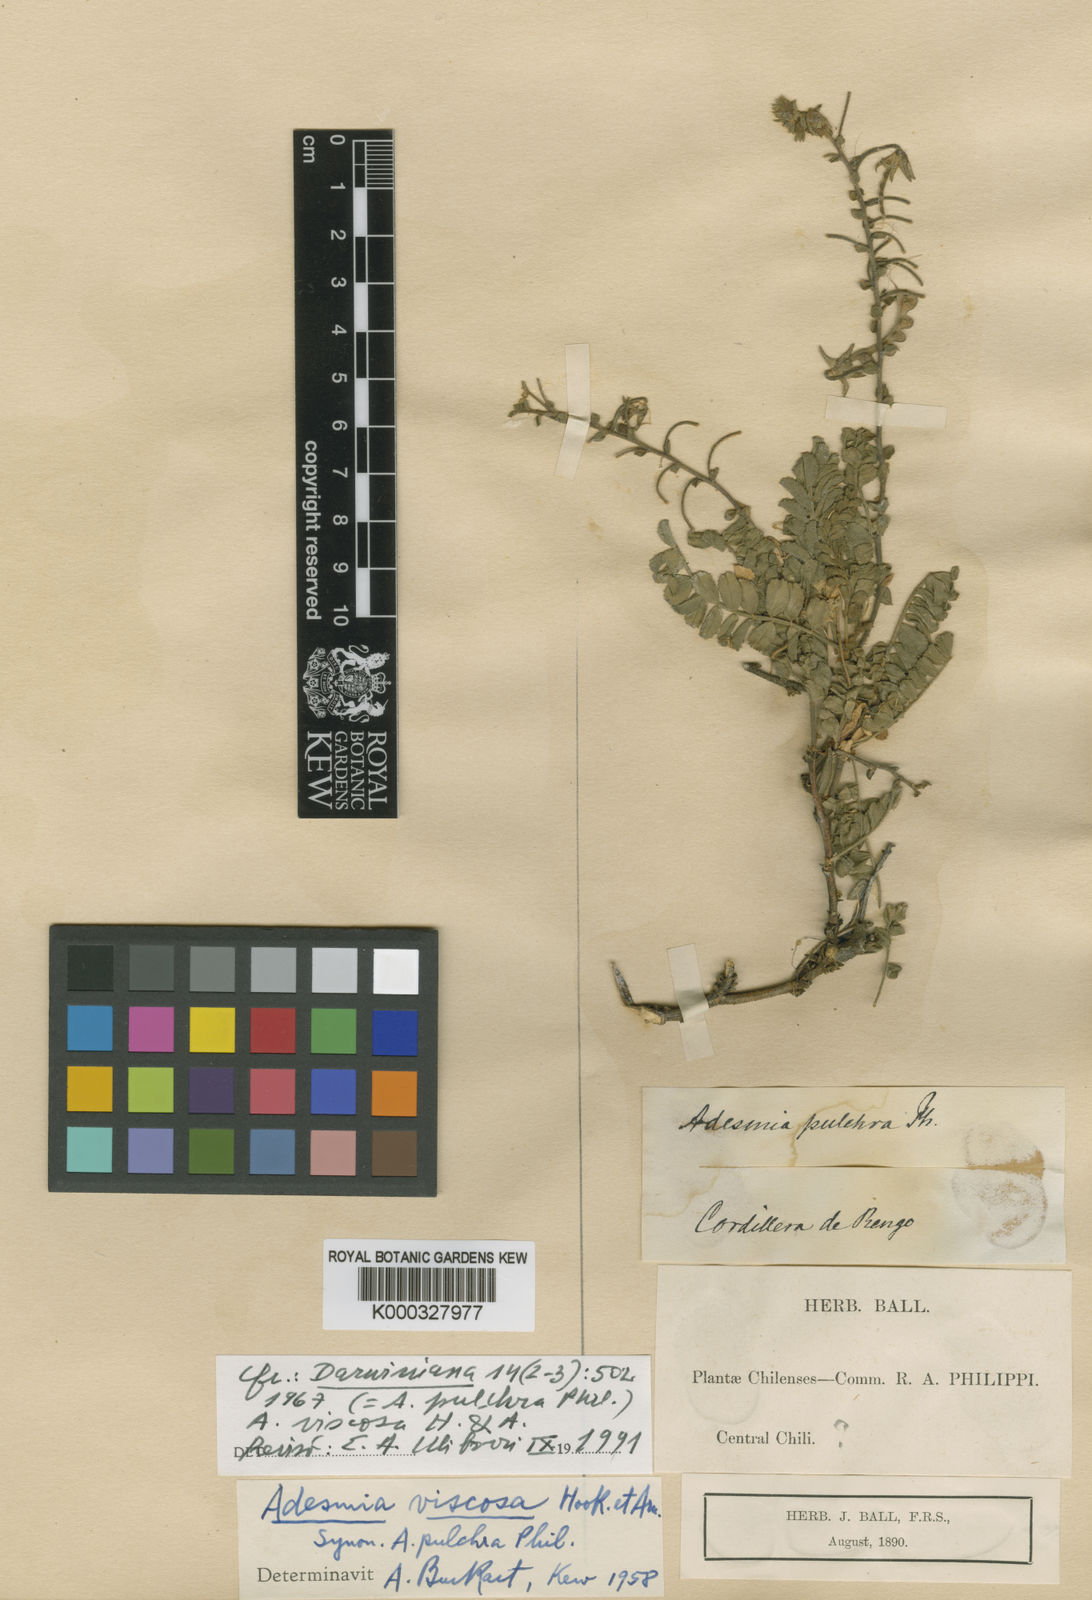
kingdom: Plantae
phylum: Tracheophyta
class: Magnoliopsida
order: Fabales
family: Fabaceae
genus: Adesmia
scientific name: Adesmia viscosa
